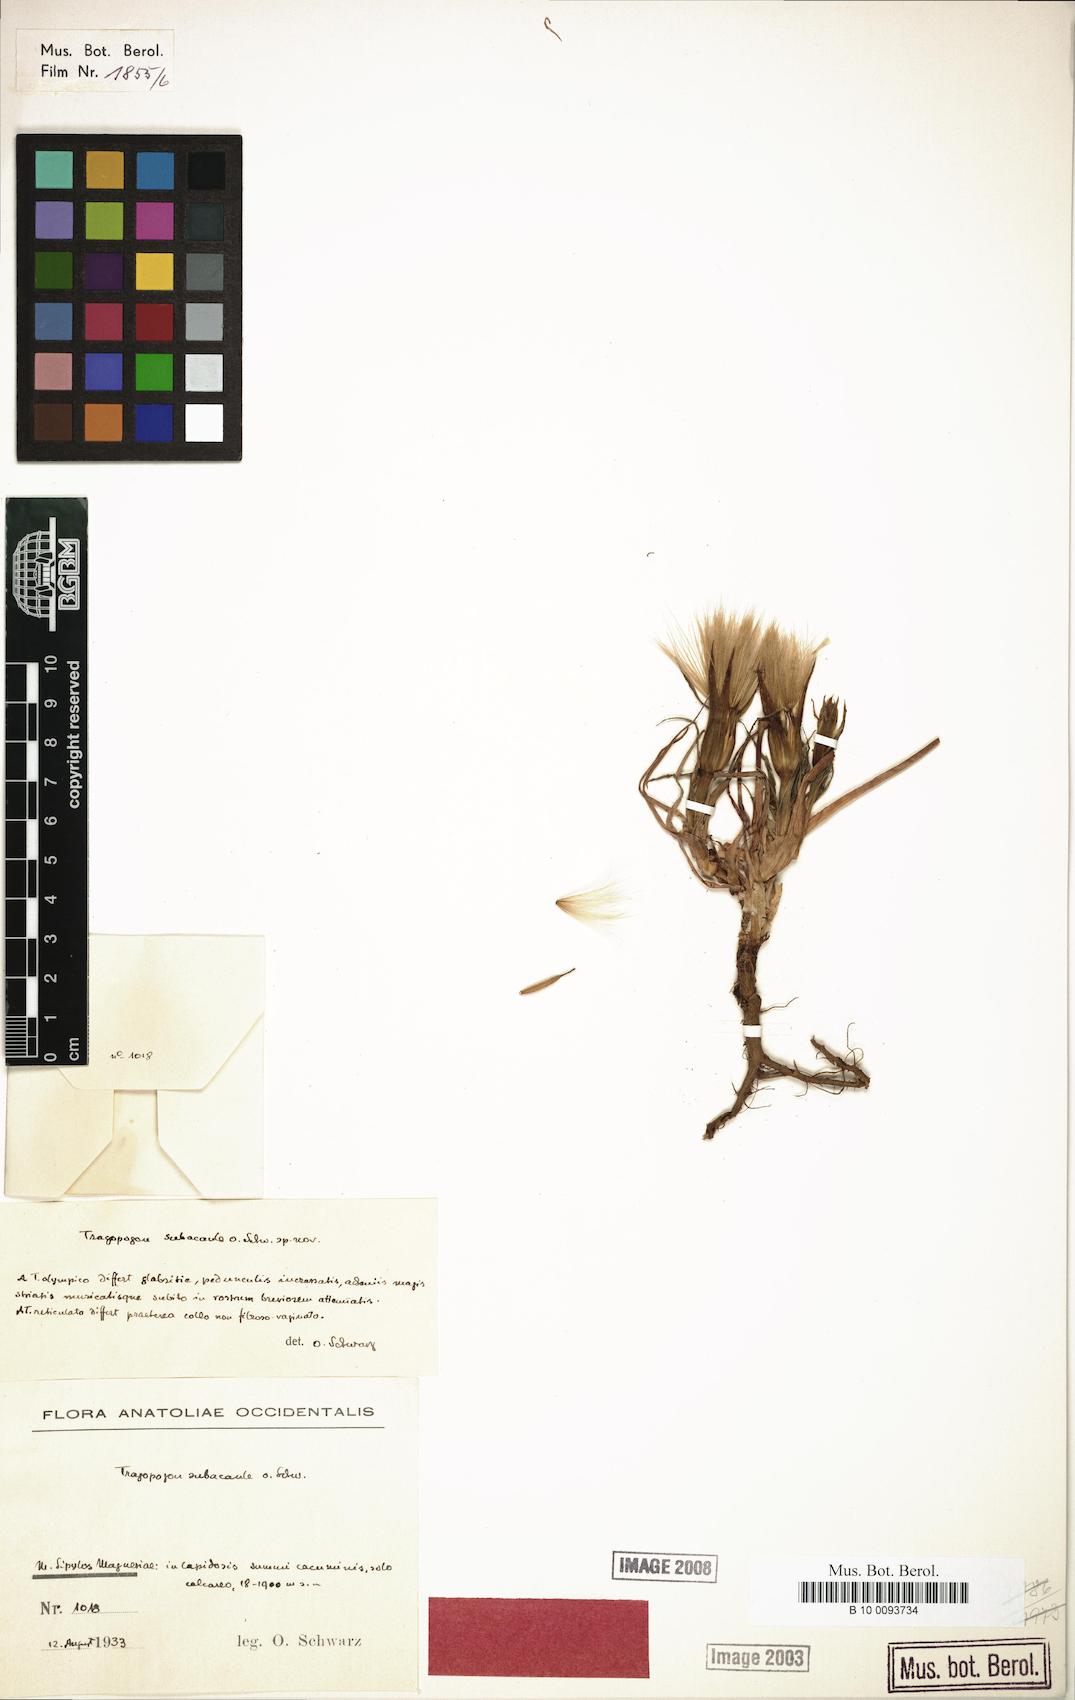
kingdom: Plantae
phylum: Tracheophyta
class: Magnoliopsida
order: Asterales
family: Asteraceae
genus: Tragopogon
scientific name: Tragopogon subacaulis
